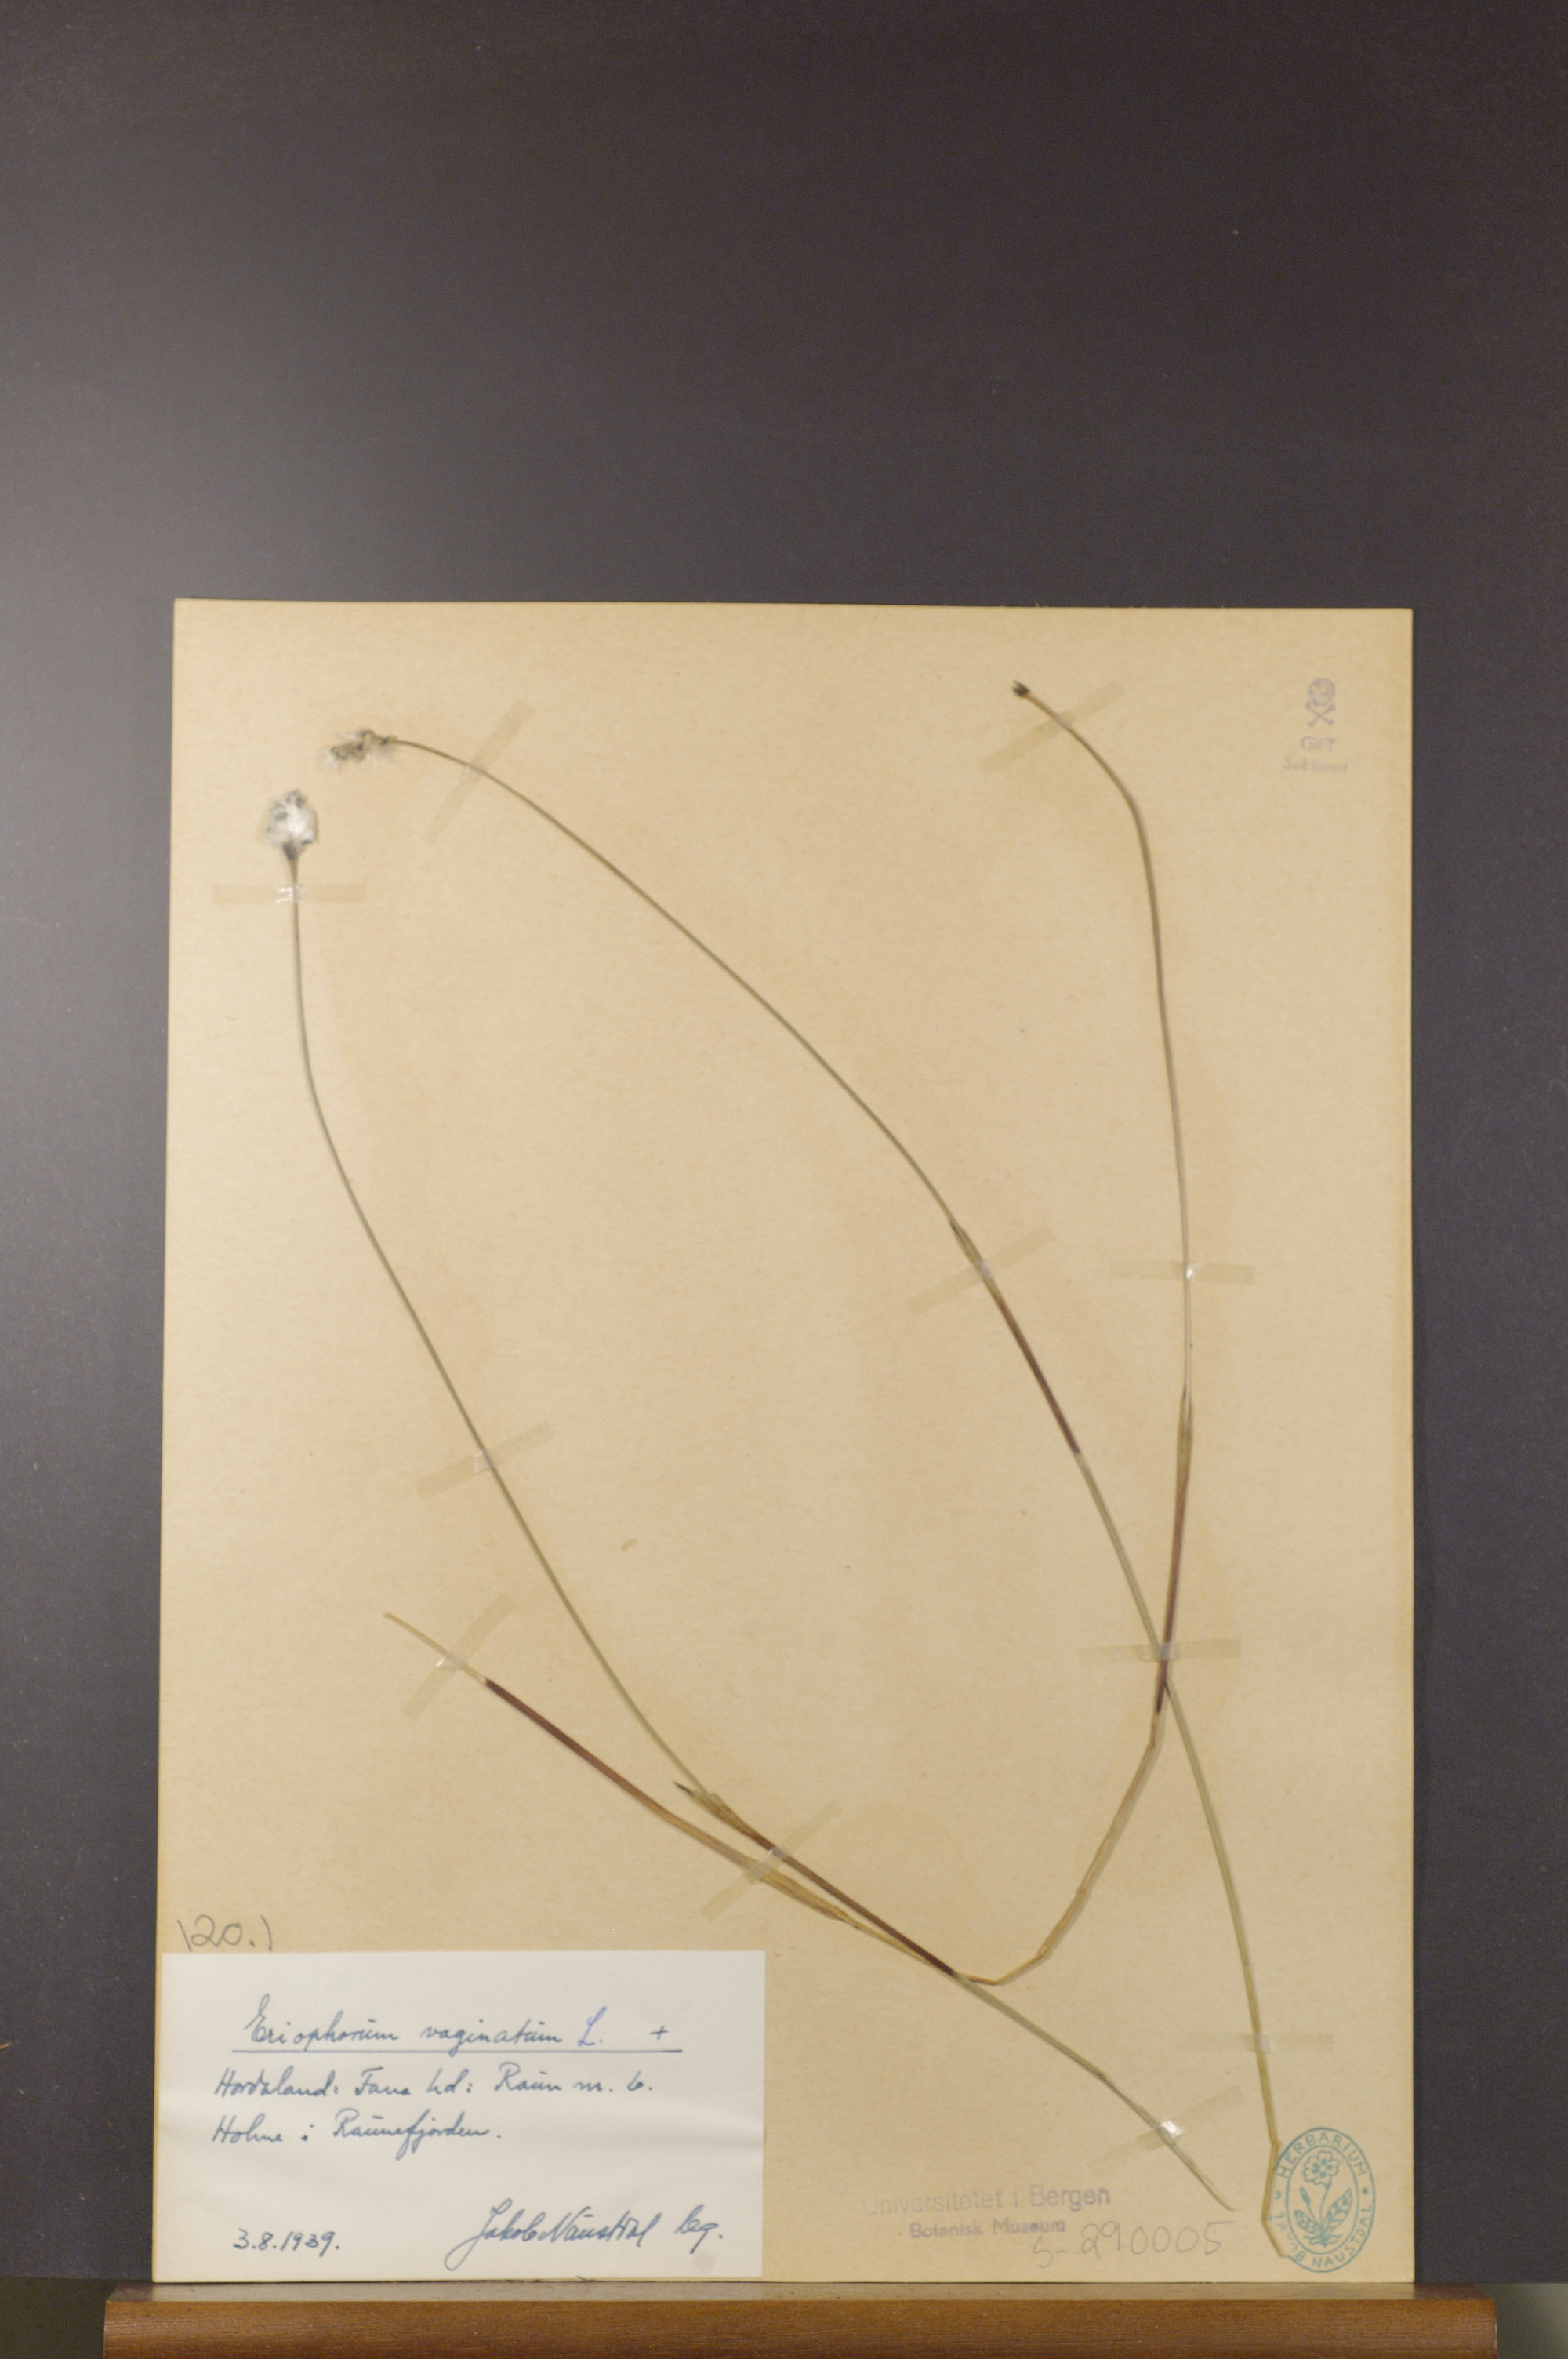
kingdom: Plantae
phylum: Tracheophyta
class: Liliopsida
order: Poales
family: Cyperaceae
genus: Eriophorum
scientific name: Eriophorum vaginatum
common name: Hare's-tail cottongrass
